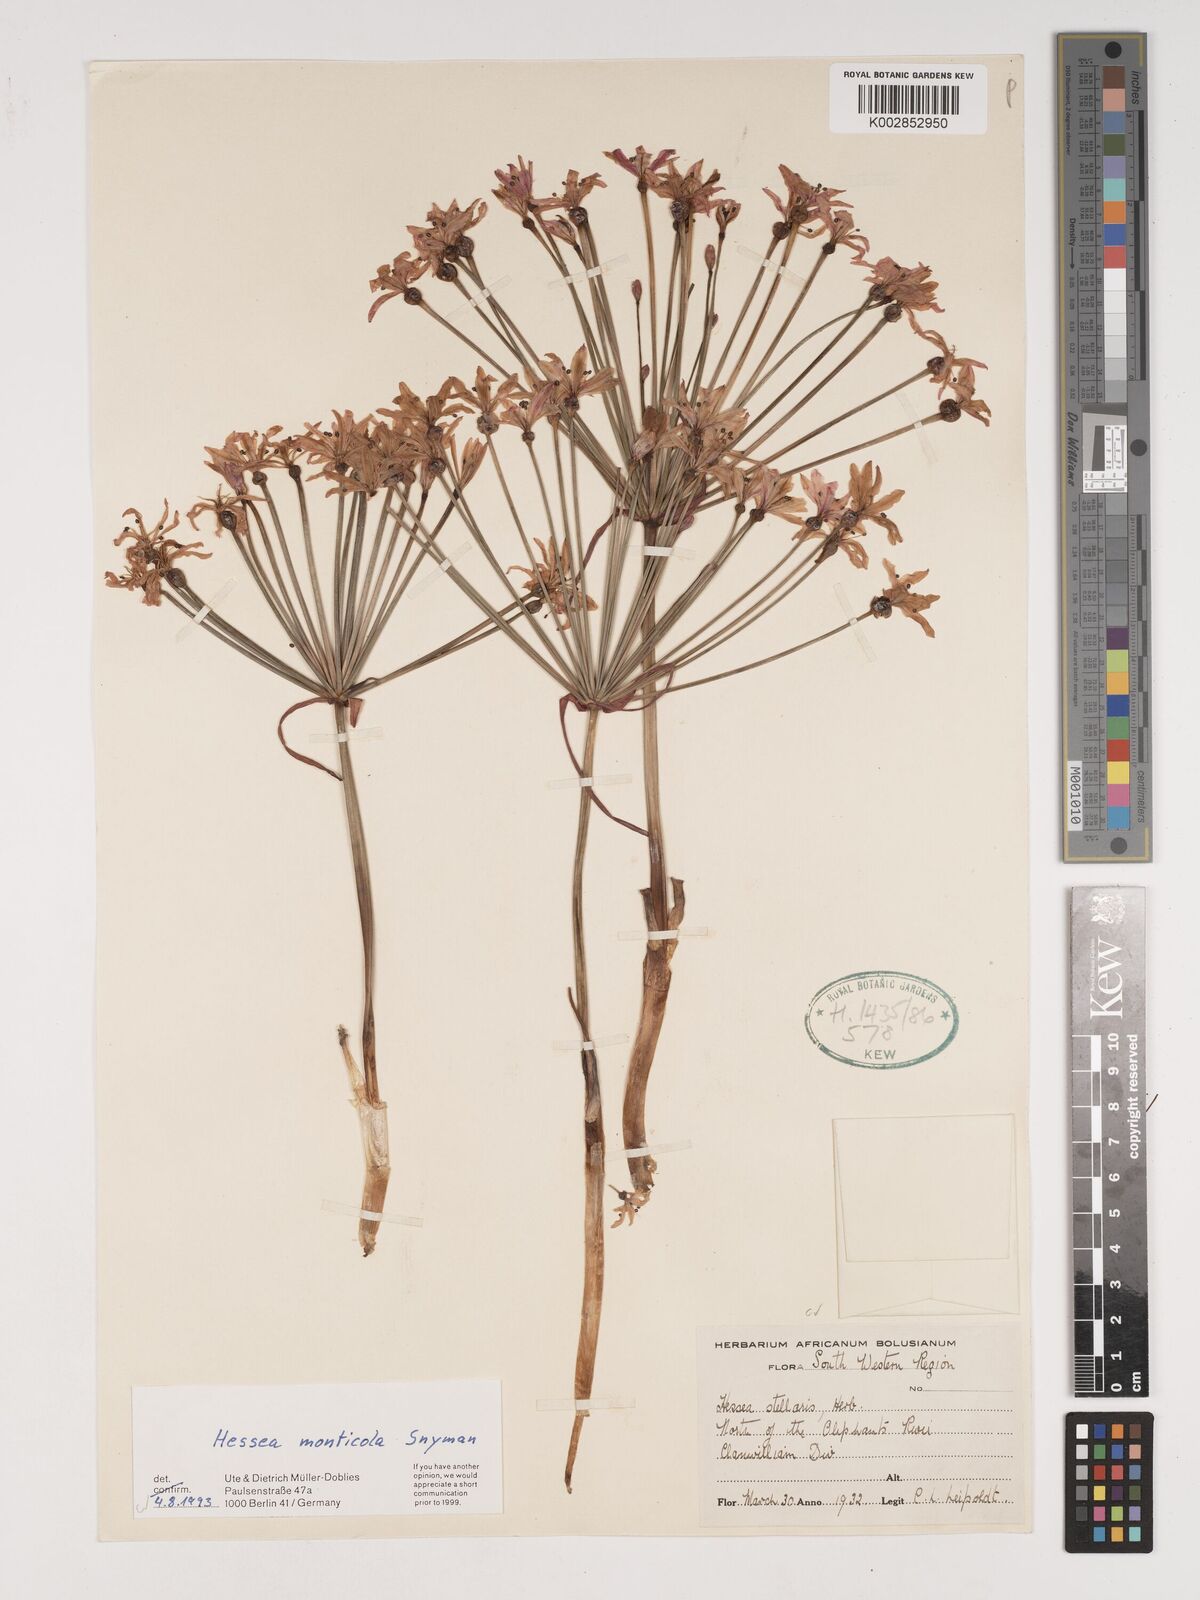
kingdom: Plantae
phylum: Tracheophyta
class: Liliopsida
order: Asparagales
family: Amaryllidaceae
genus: Hessea
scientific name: Hessea monticola
